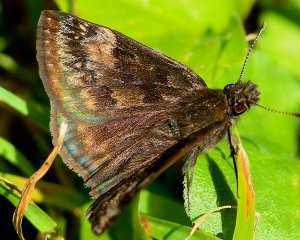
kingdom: Animalia
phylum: Arthropoda
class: Insecta
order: Lepidoptera
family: Hesperiidae
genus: Gesta
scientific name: Gesta
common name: Wild Indigo Duskywing
